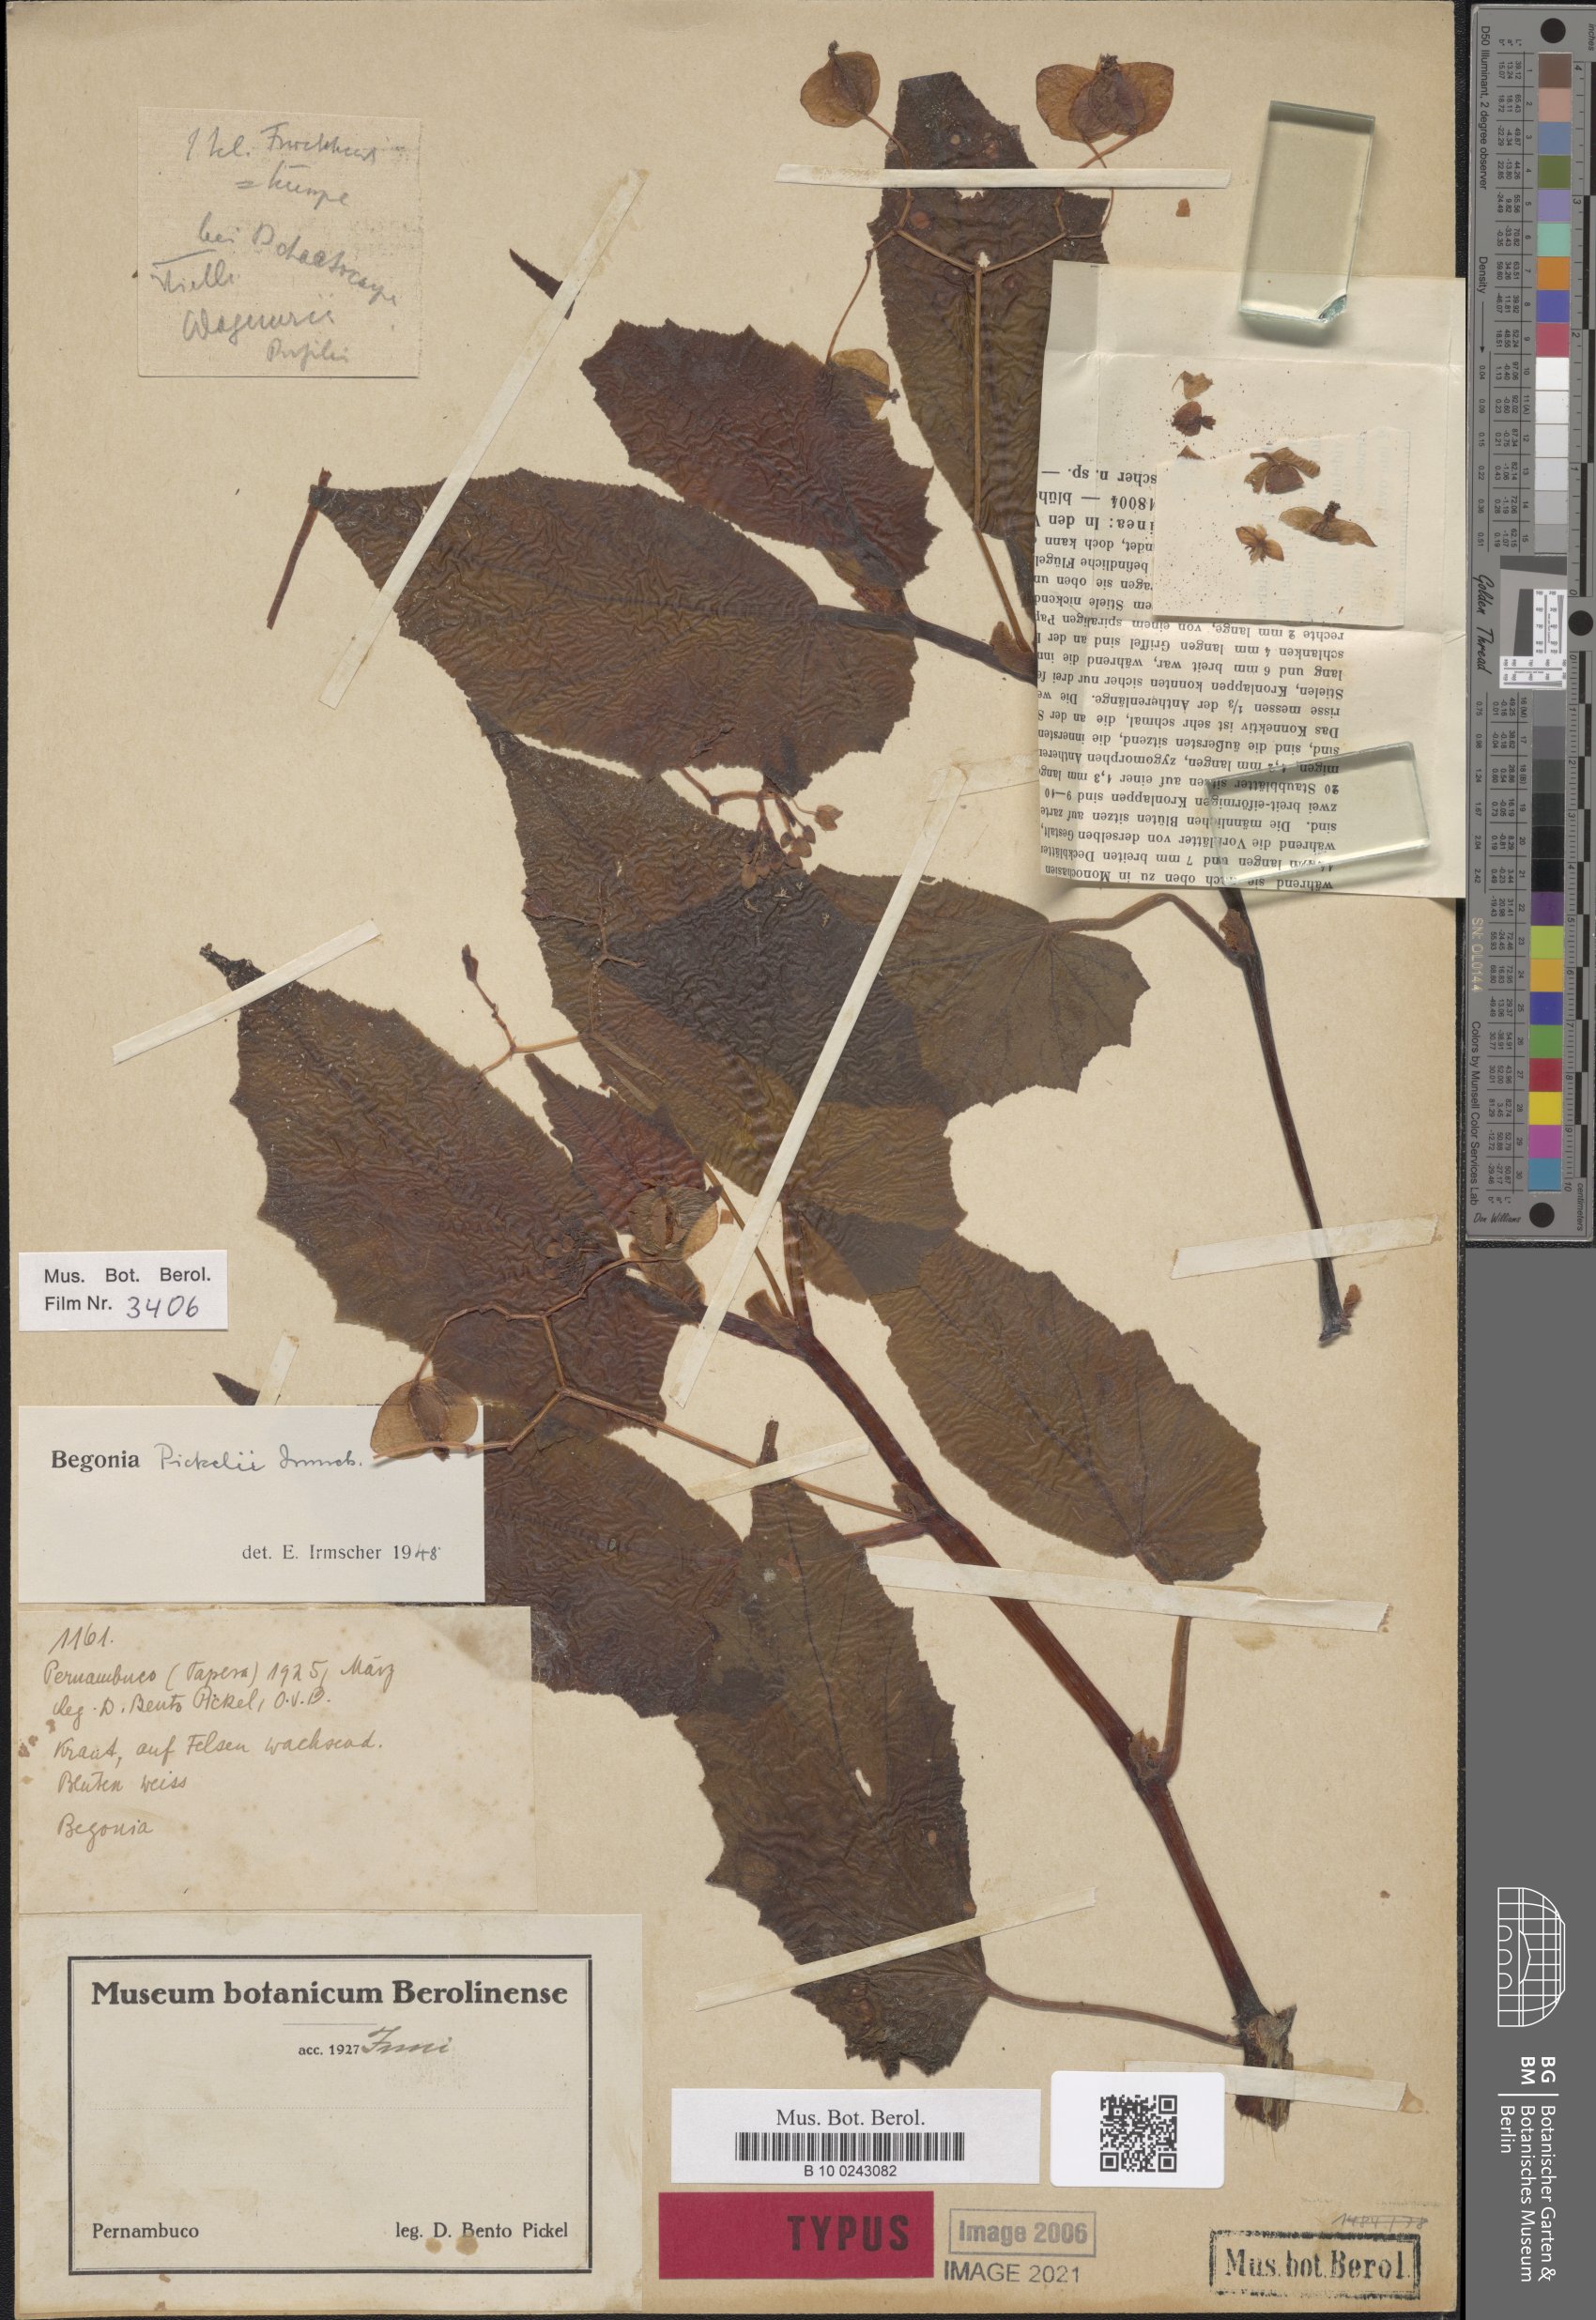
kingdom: Plantae
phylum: Tracheophyta
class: Magnoliopsida
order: Cucurbitales
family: Begoniaceae
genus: Begonia
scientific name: Begonia pickelii
